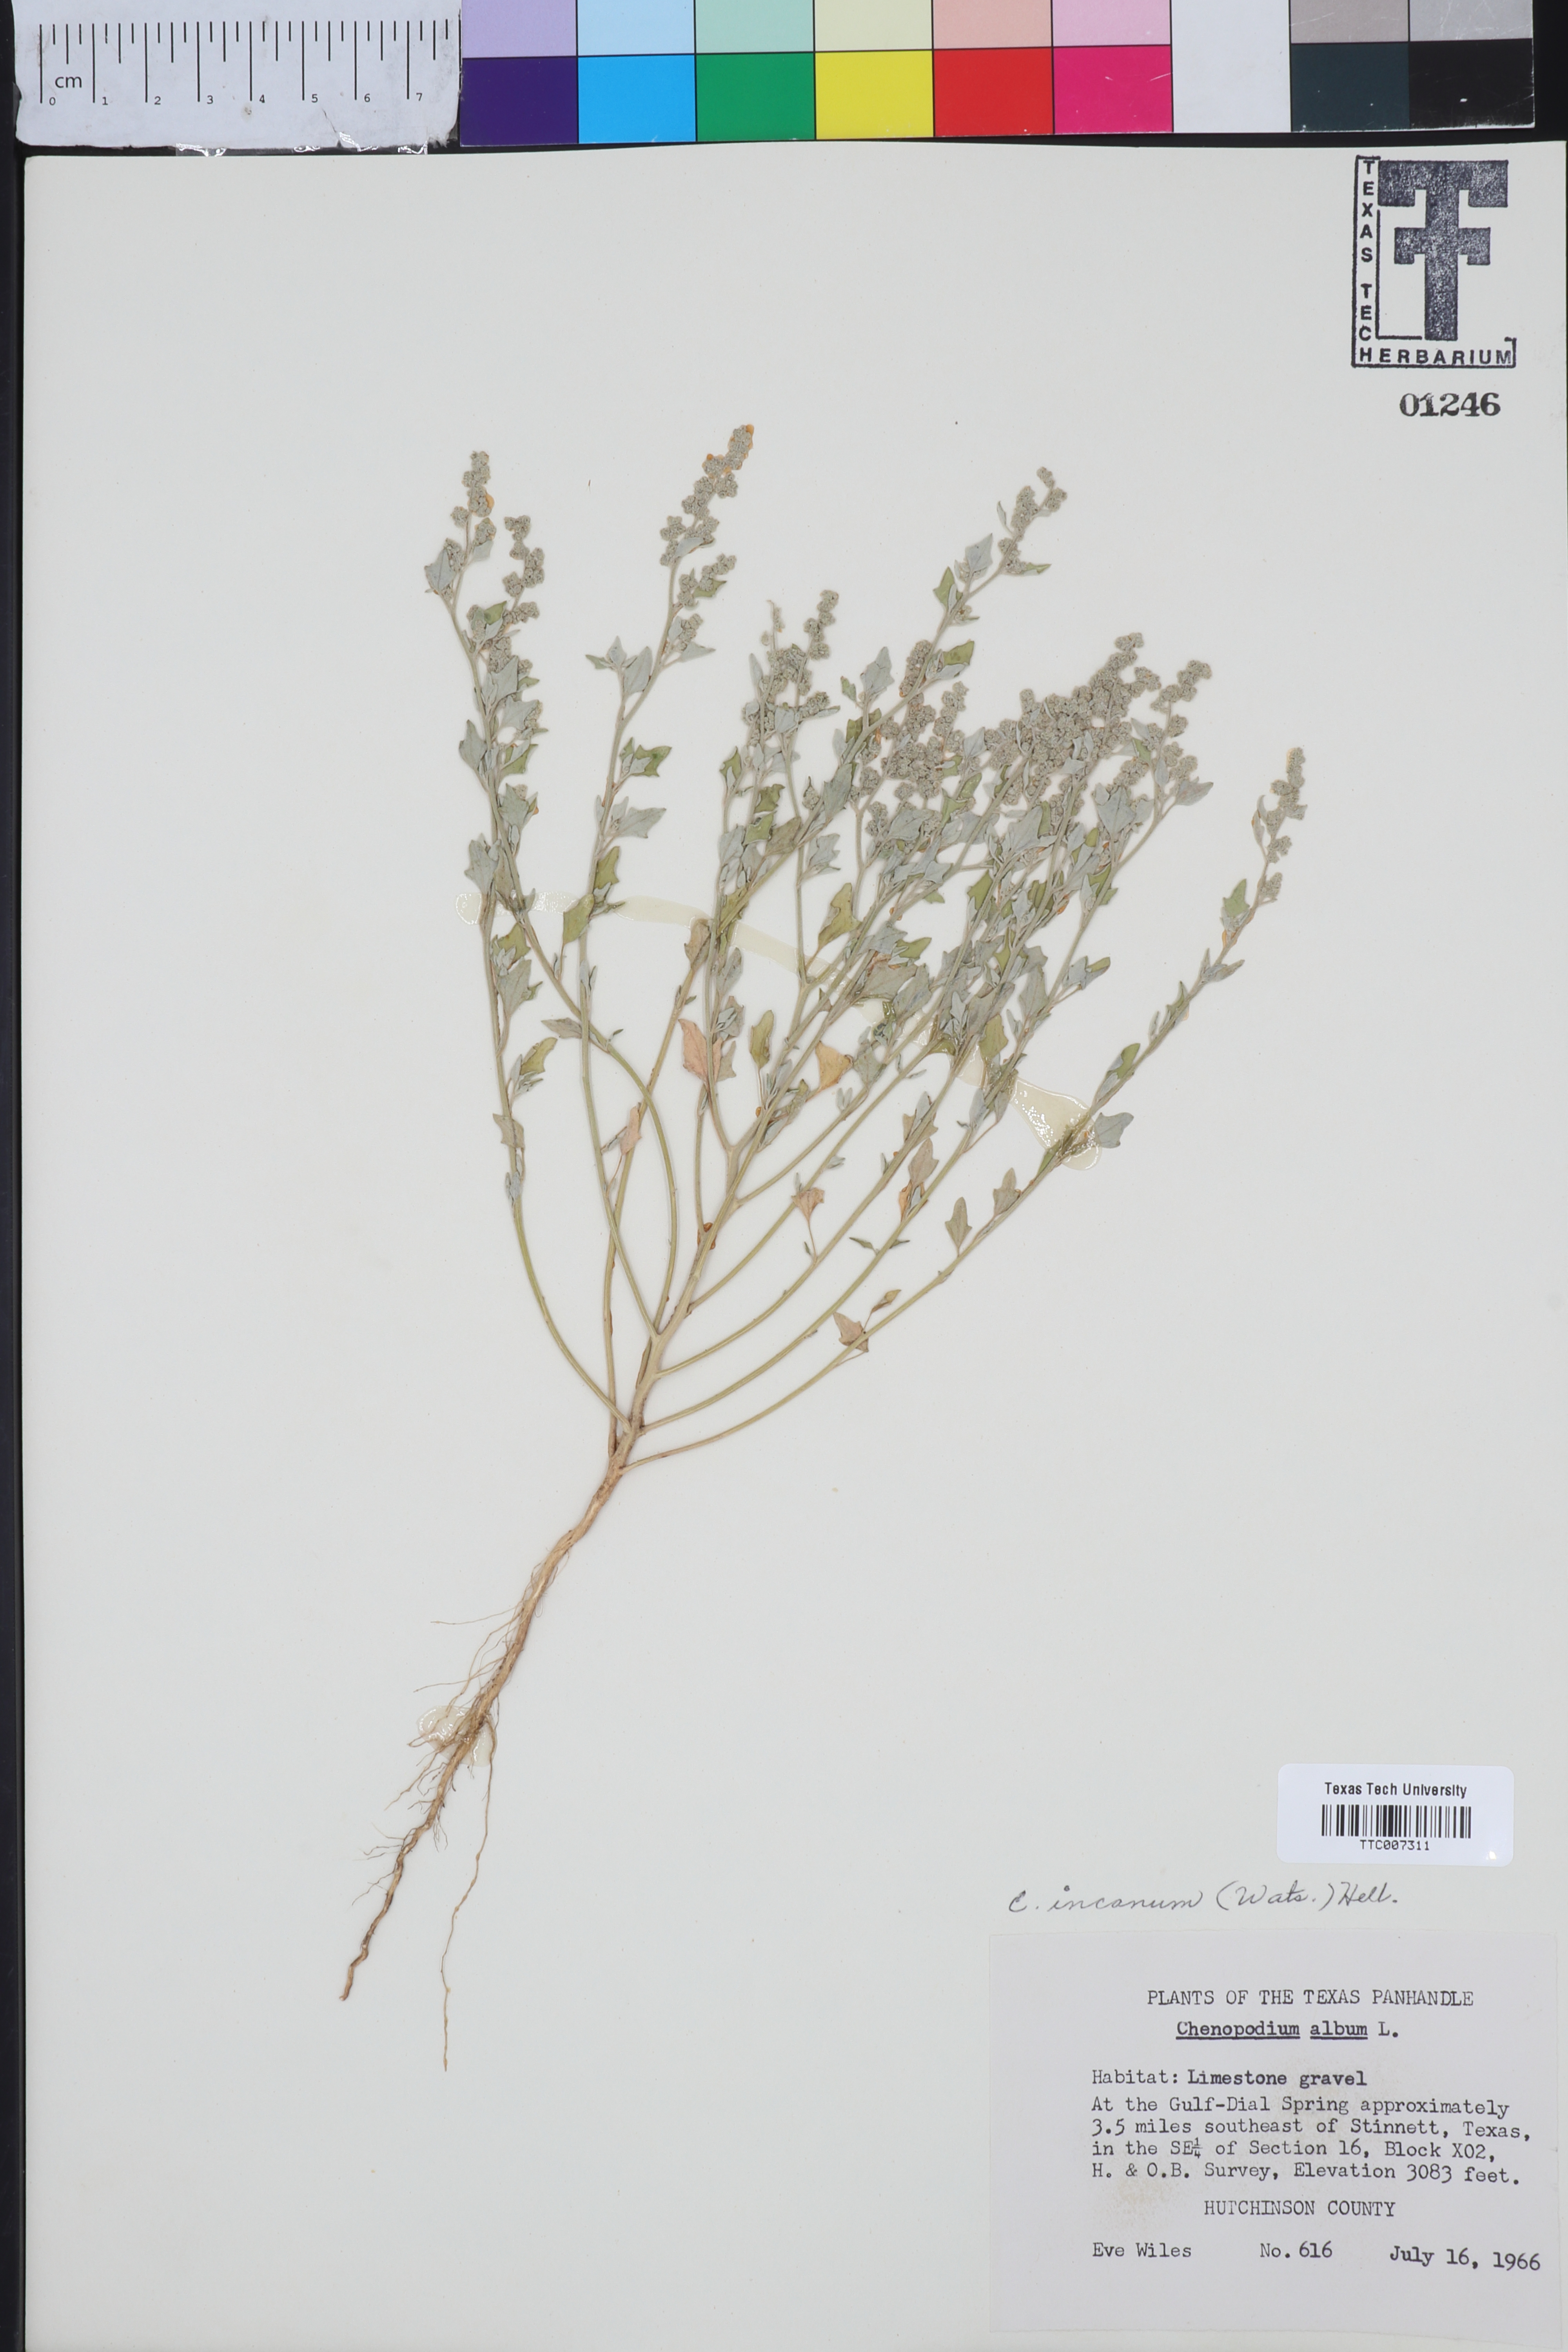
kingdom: Plantae
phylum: Tracheophyta
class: Magnoliopsida
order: Caryophyllales
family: Amaranthaceae
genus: Chenopodium
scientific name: Chenopodium incanum
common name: Hoary goosefoot
